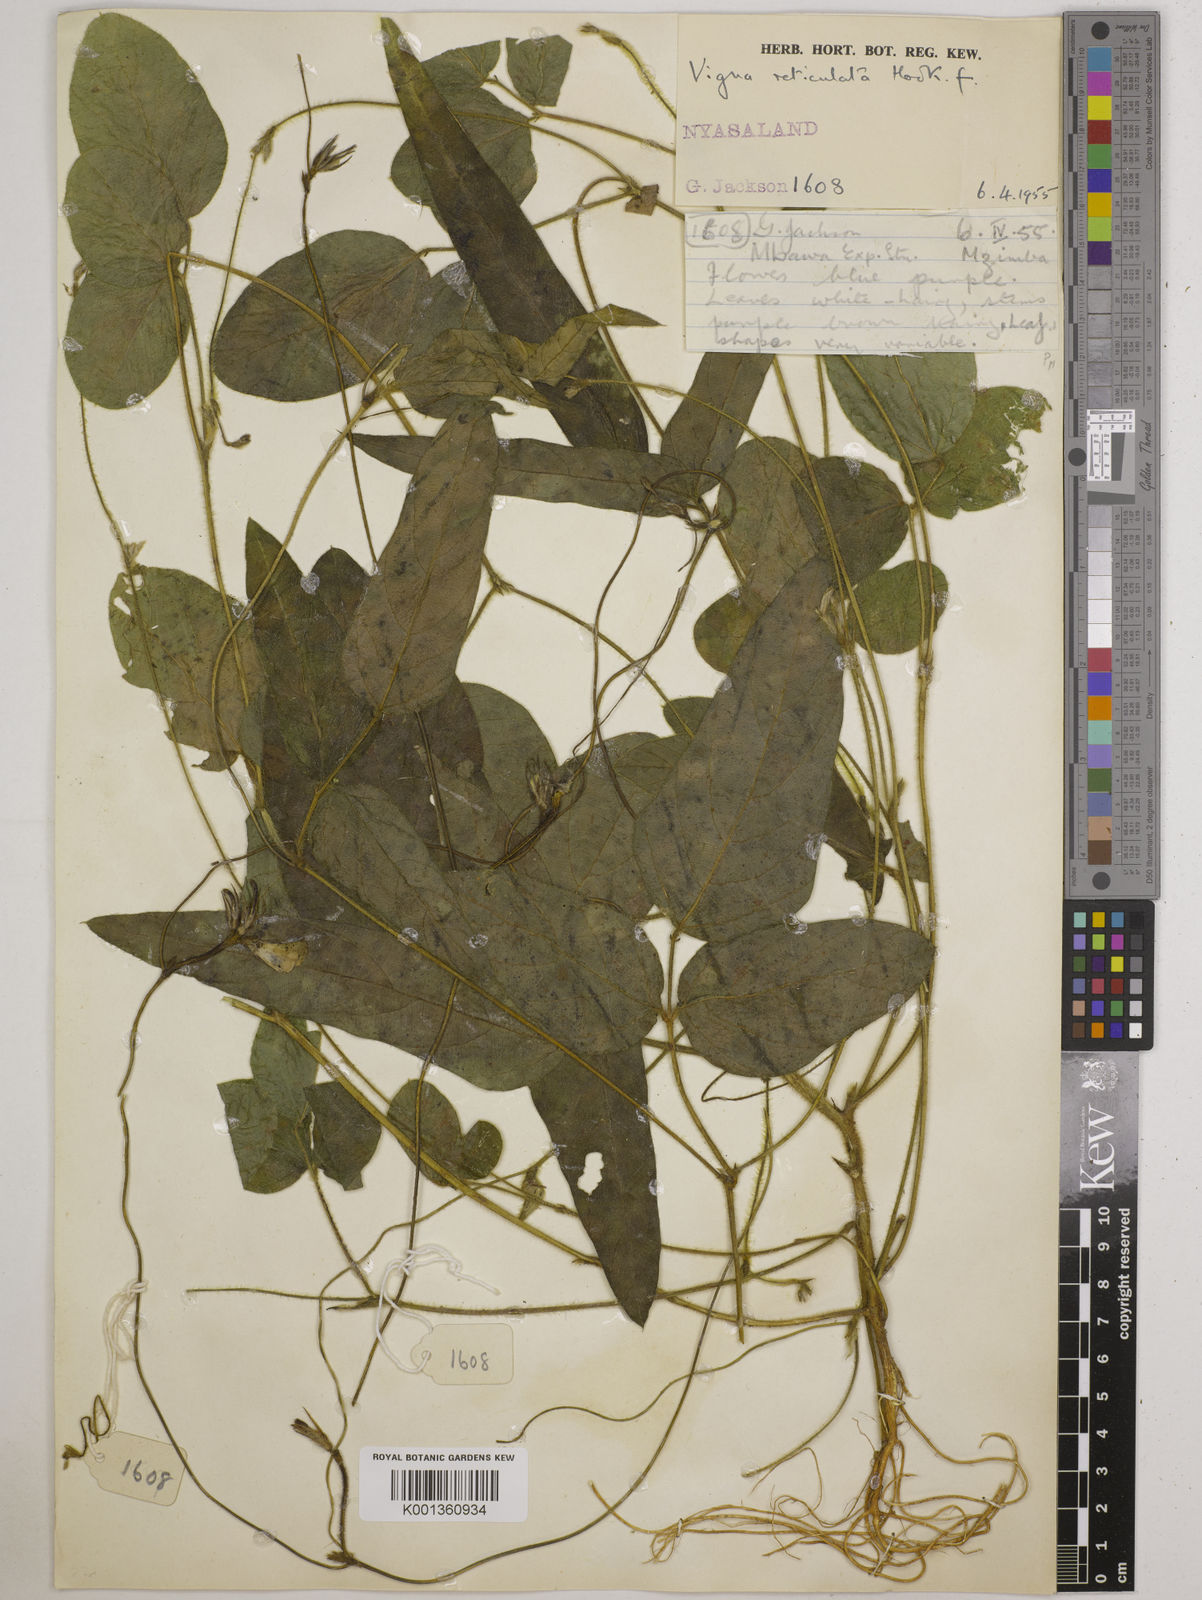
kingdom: Plantae
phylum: Tracheophyta
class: Magnoliopsida
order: Fabales
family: Fabaceae
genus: Vigna
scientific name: Vigna reticulata
